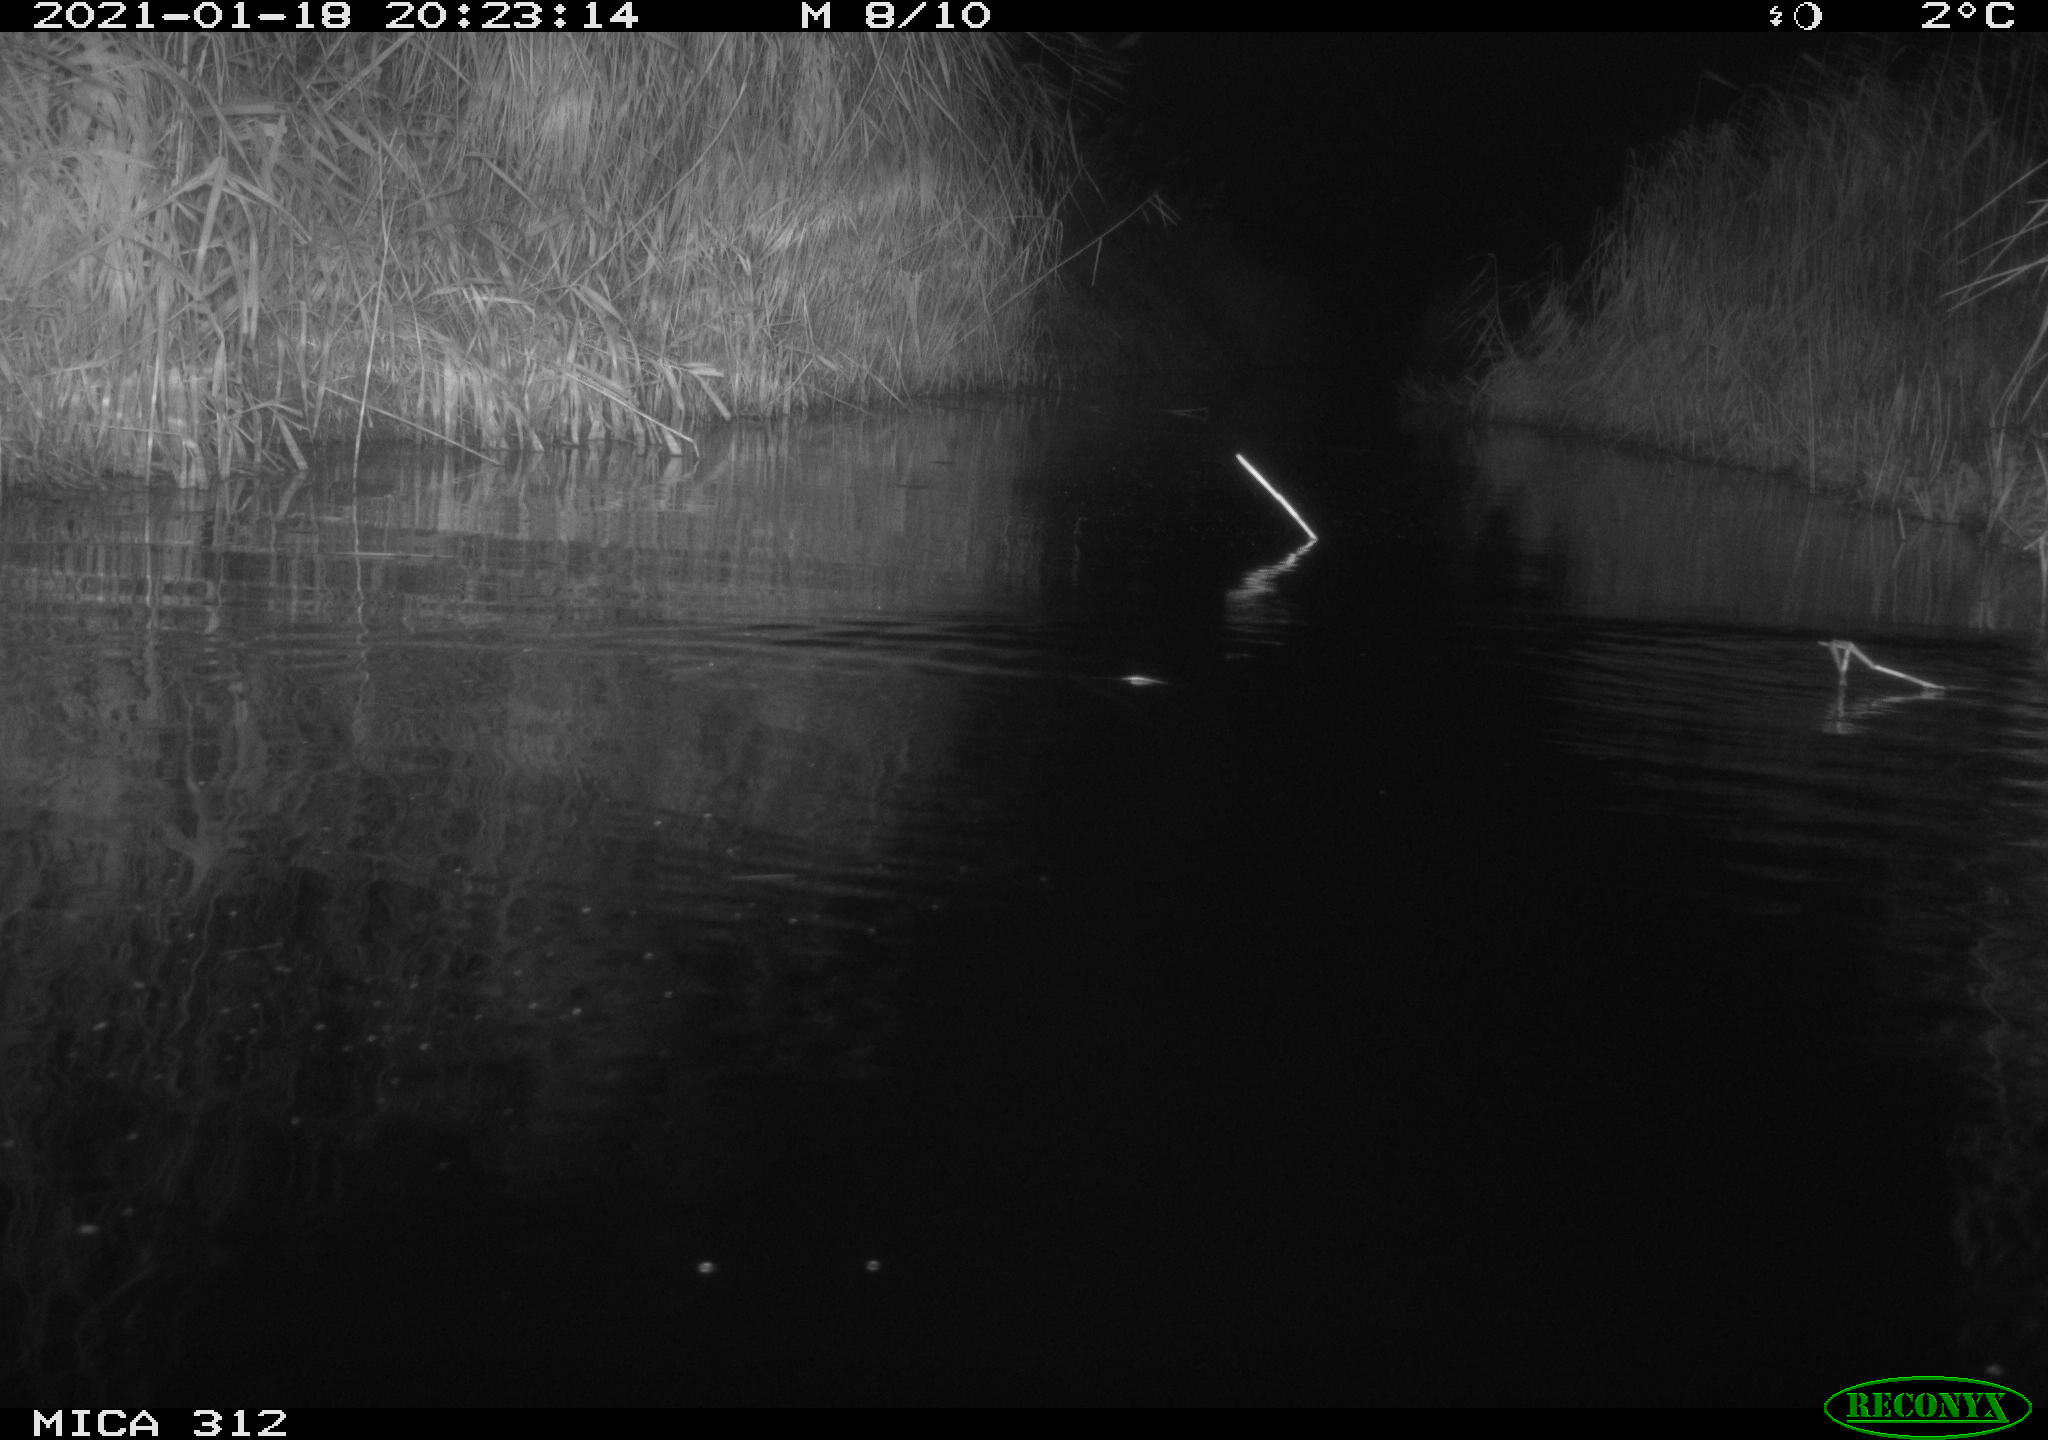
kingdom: Animalia
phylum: Chordata
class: Mammalia
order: Rodentia
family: Muridae
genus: Rattus
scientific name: Rattus norvegicus
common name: Brown rat
